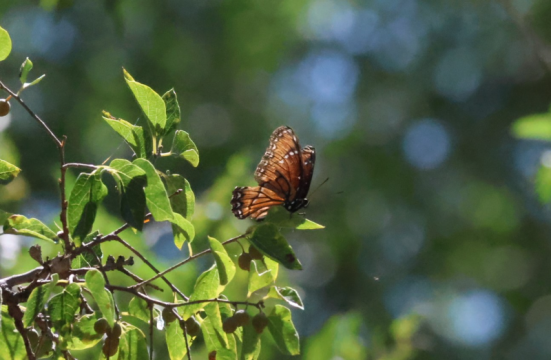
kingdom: Animalia
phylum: Arthropoda
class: Insecta
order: Lepidoptera
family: Nymphalidae
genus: Limenitis
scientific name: Limenitis archippus
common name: Viceroy
